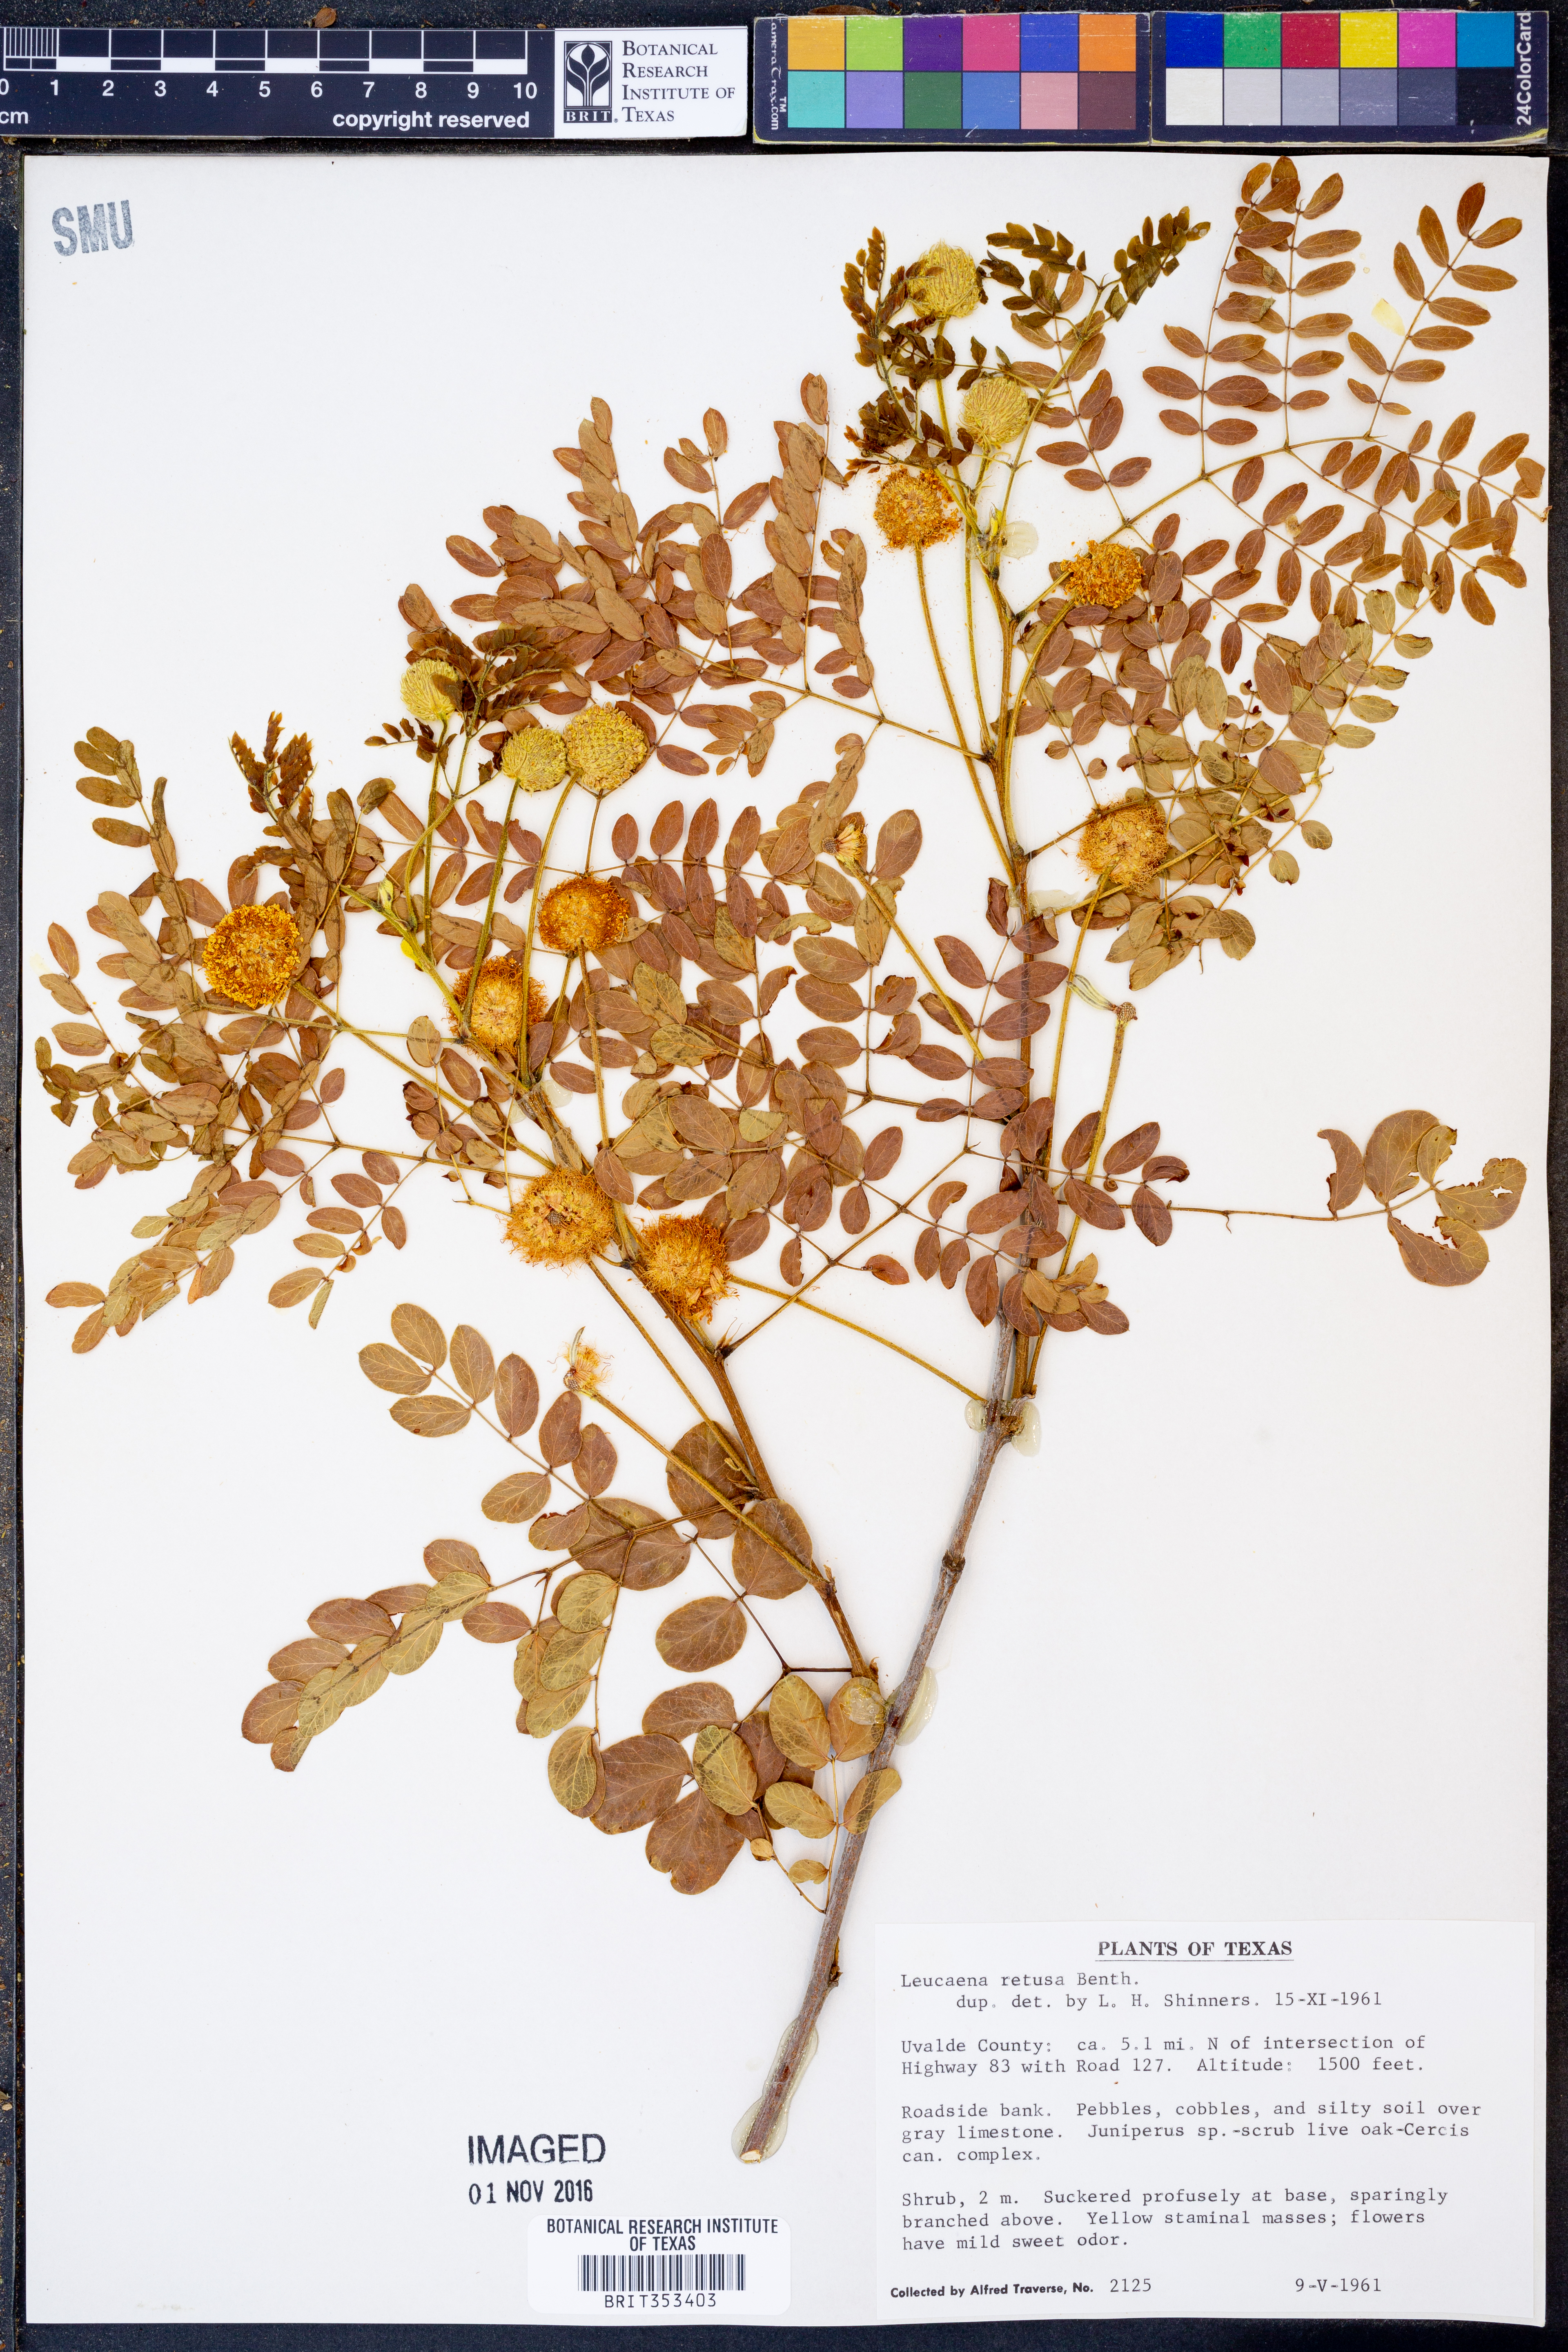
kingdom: Plantae
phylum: Tracheophyta
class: Magnoliopsida
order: Fabales
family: Fabaceae
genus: Leucaena
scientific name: Leucaena retusa
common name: Littleleaf leadtree
